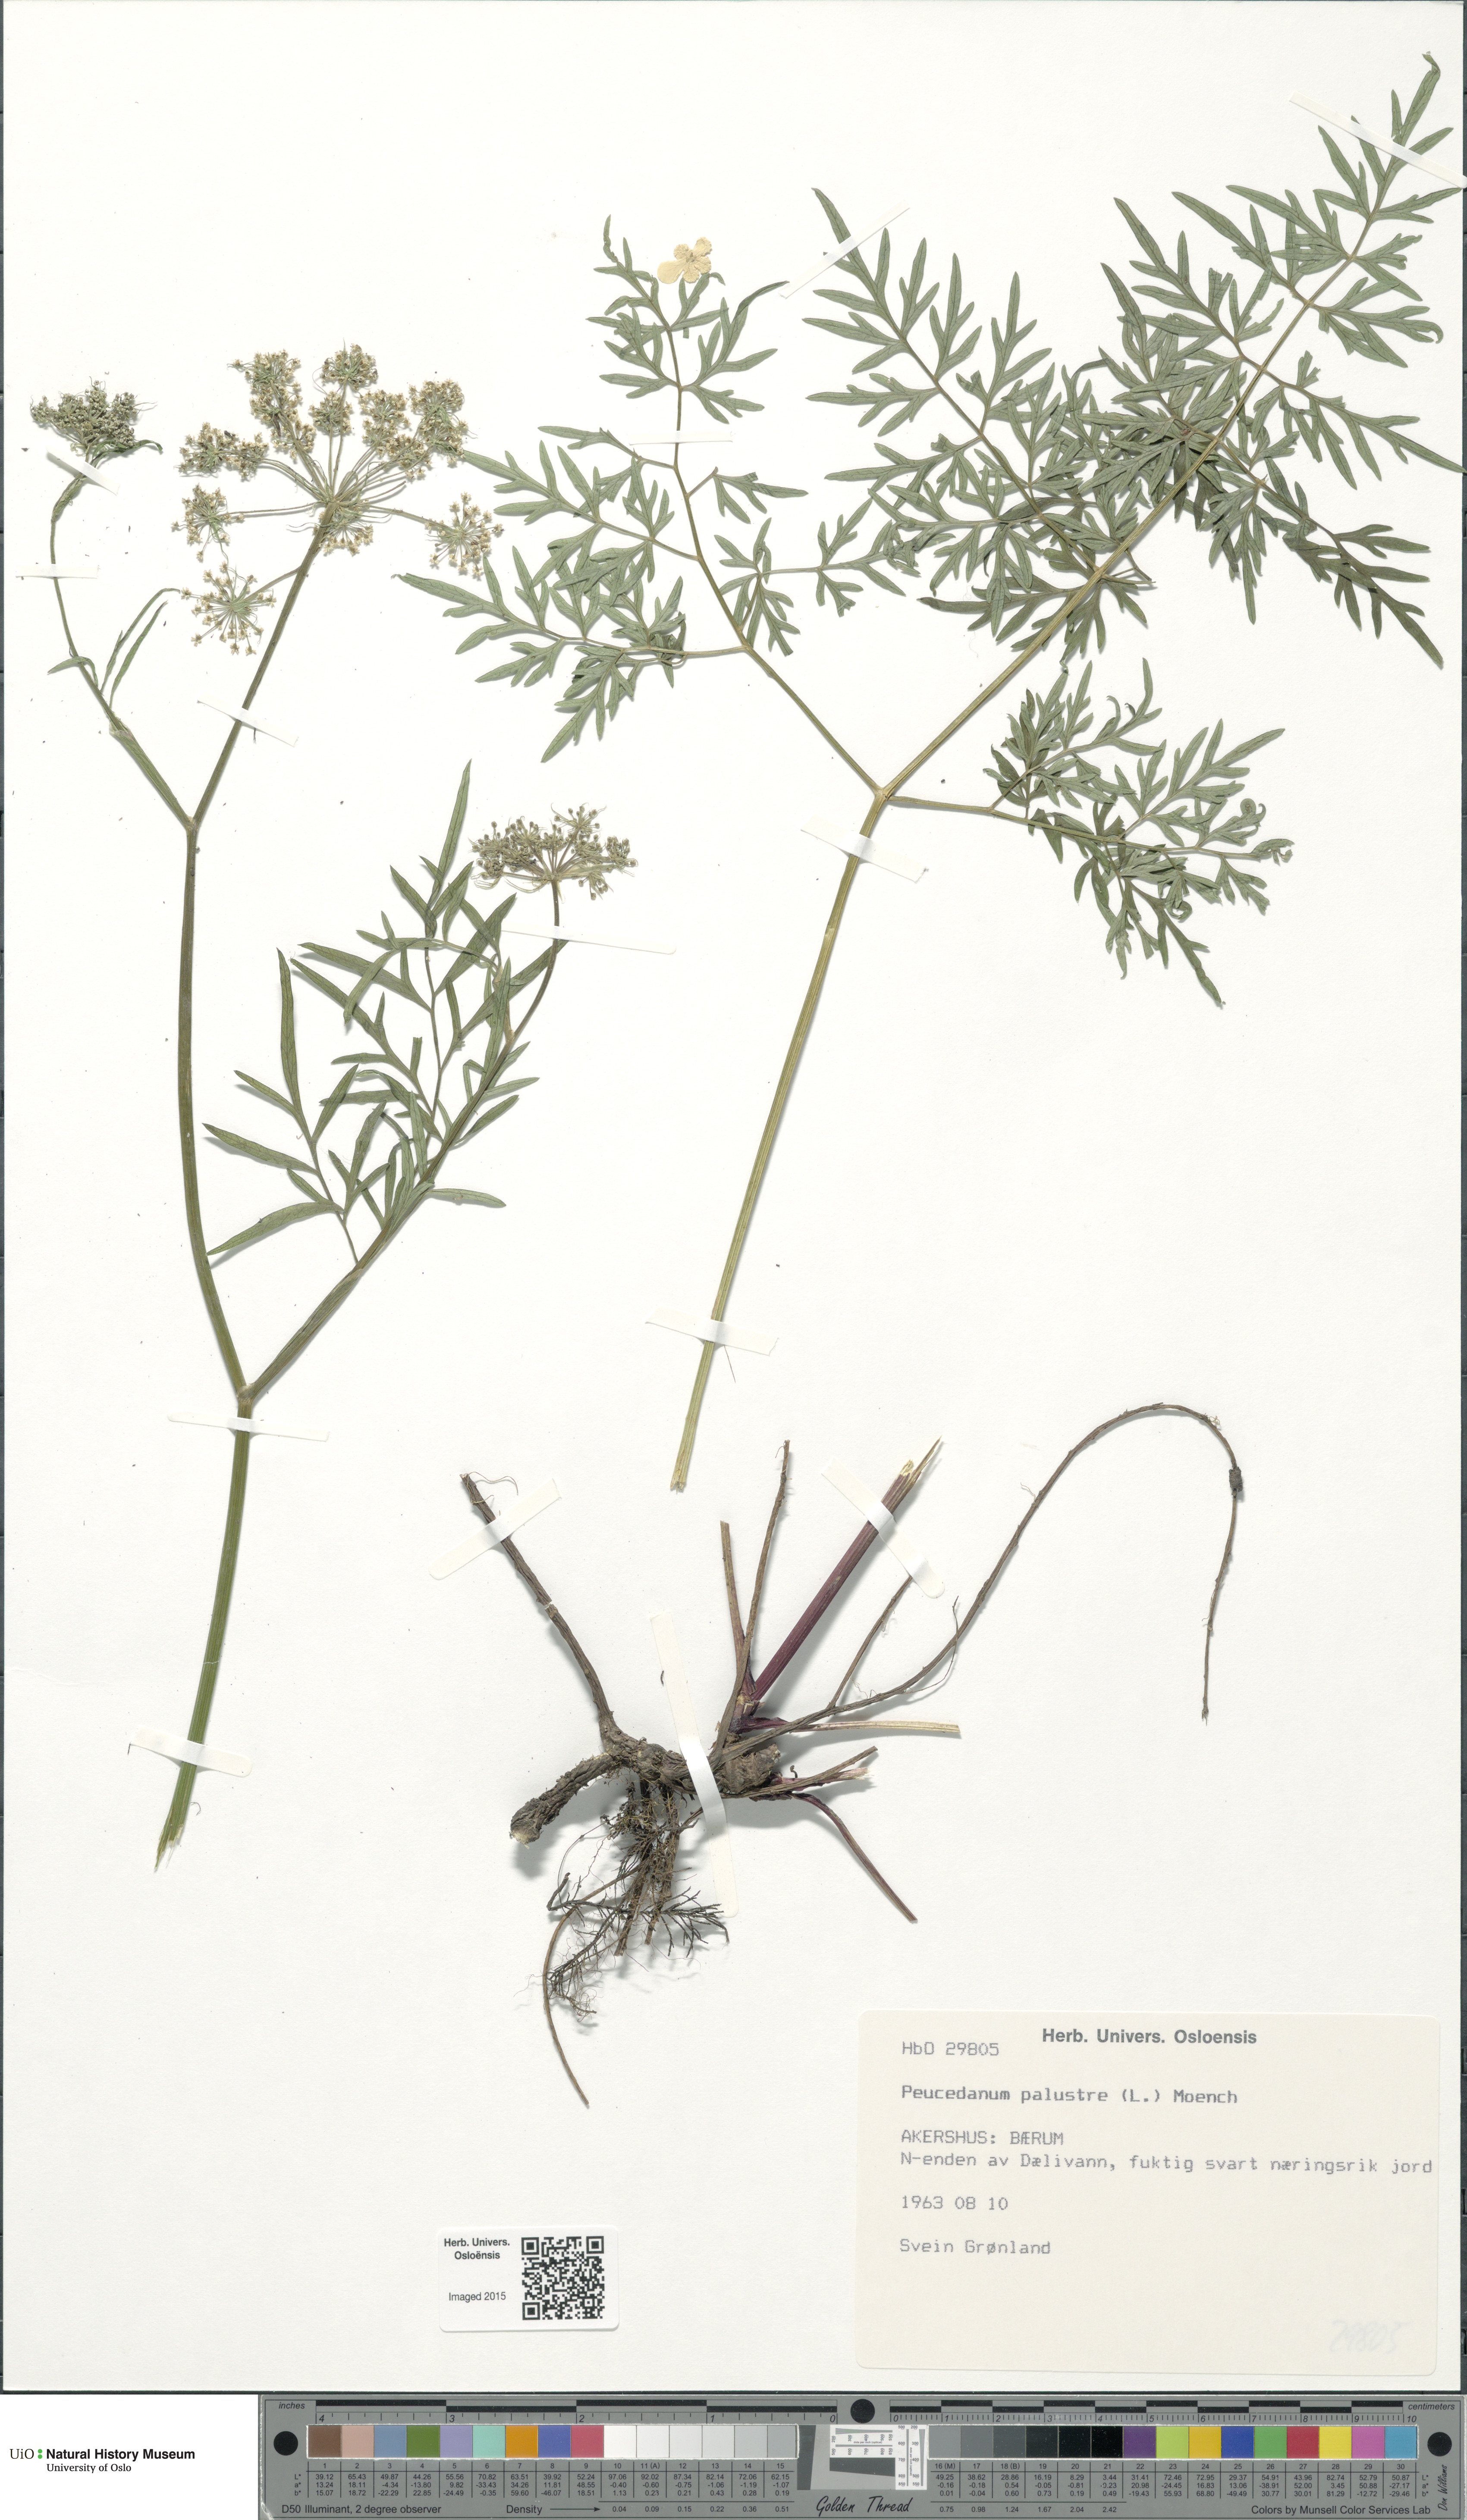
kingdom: Plantae
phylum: Tracheophyta
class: Magnoliopsida
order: Apiales
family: Apiaceae
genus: Thysselinum
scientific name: Thysselinum palustre
